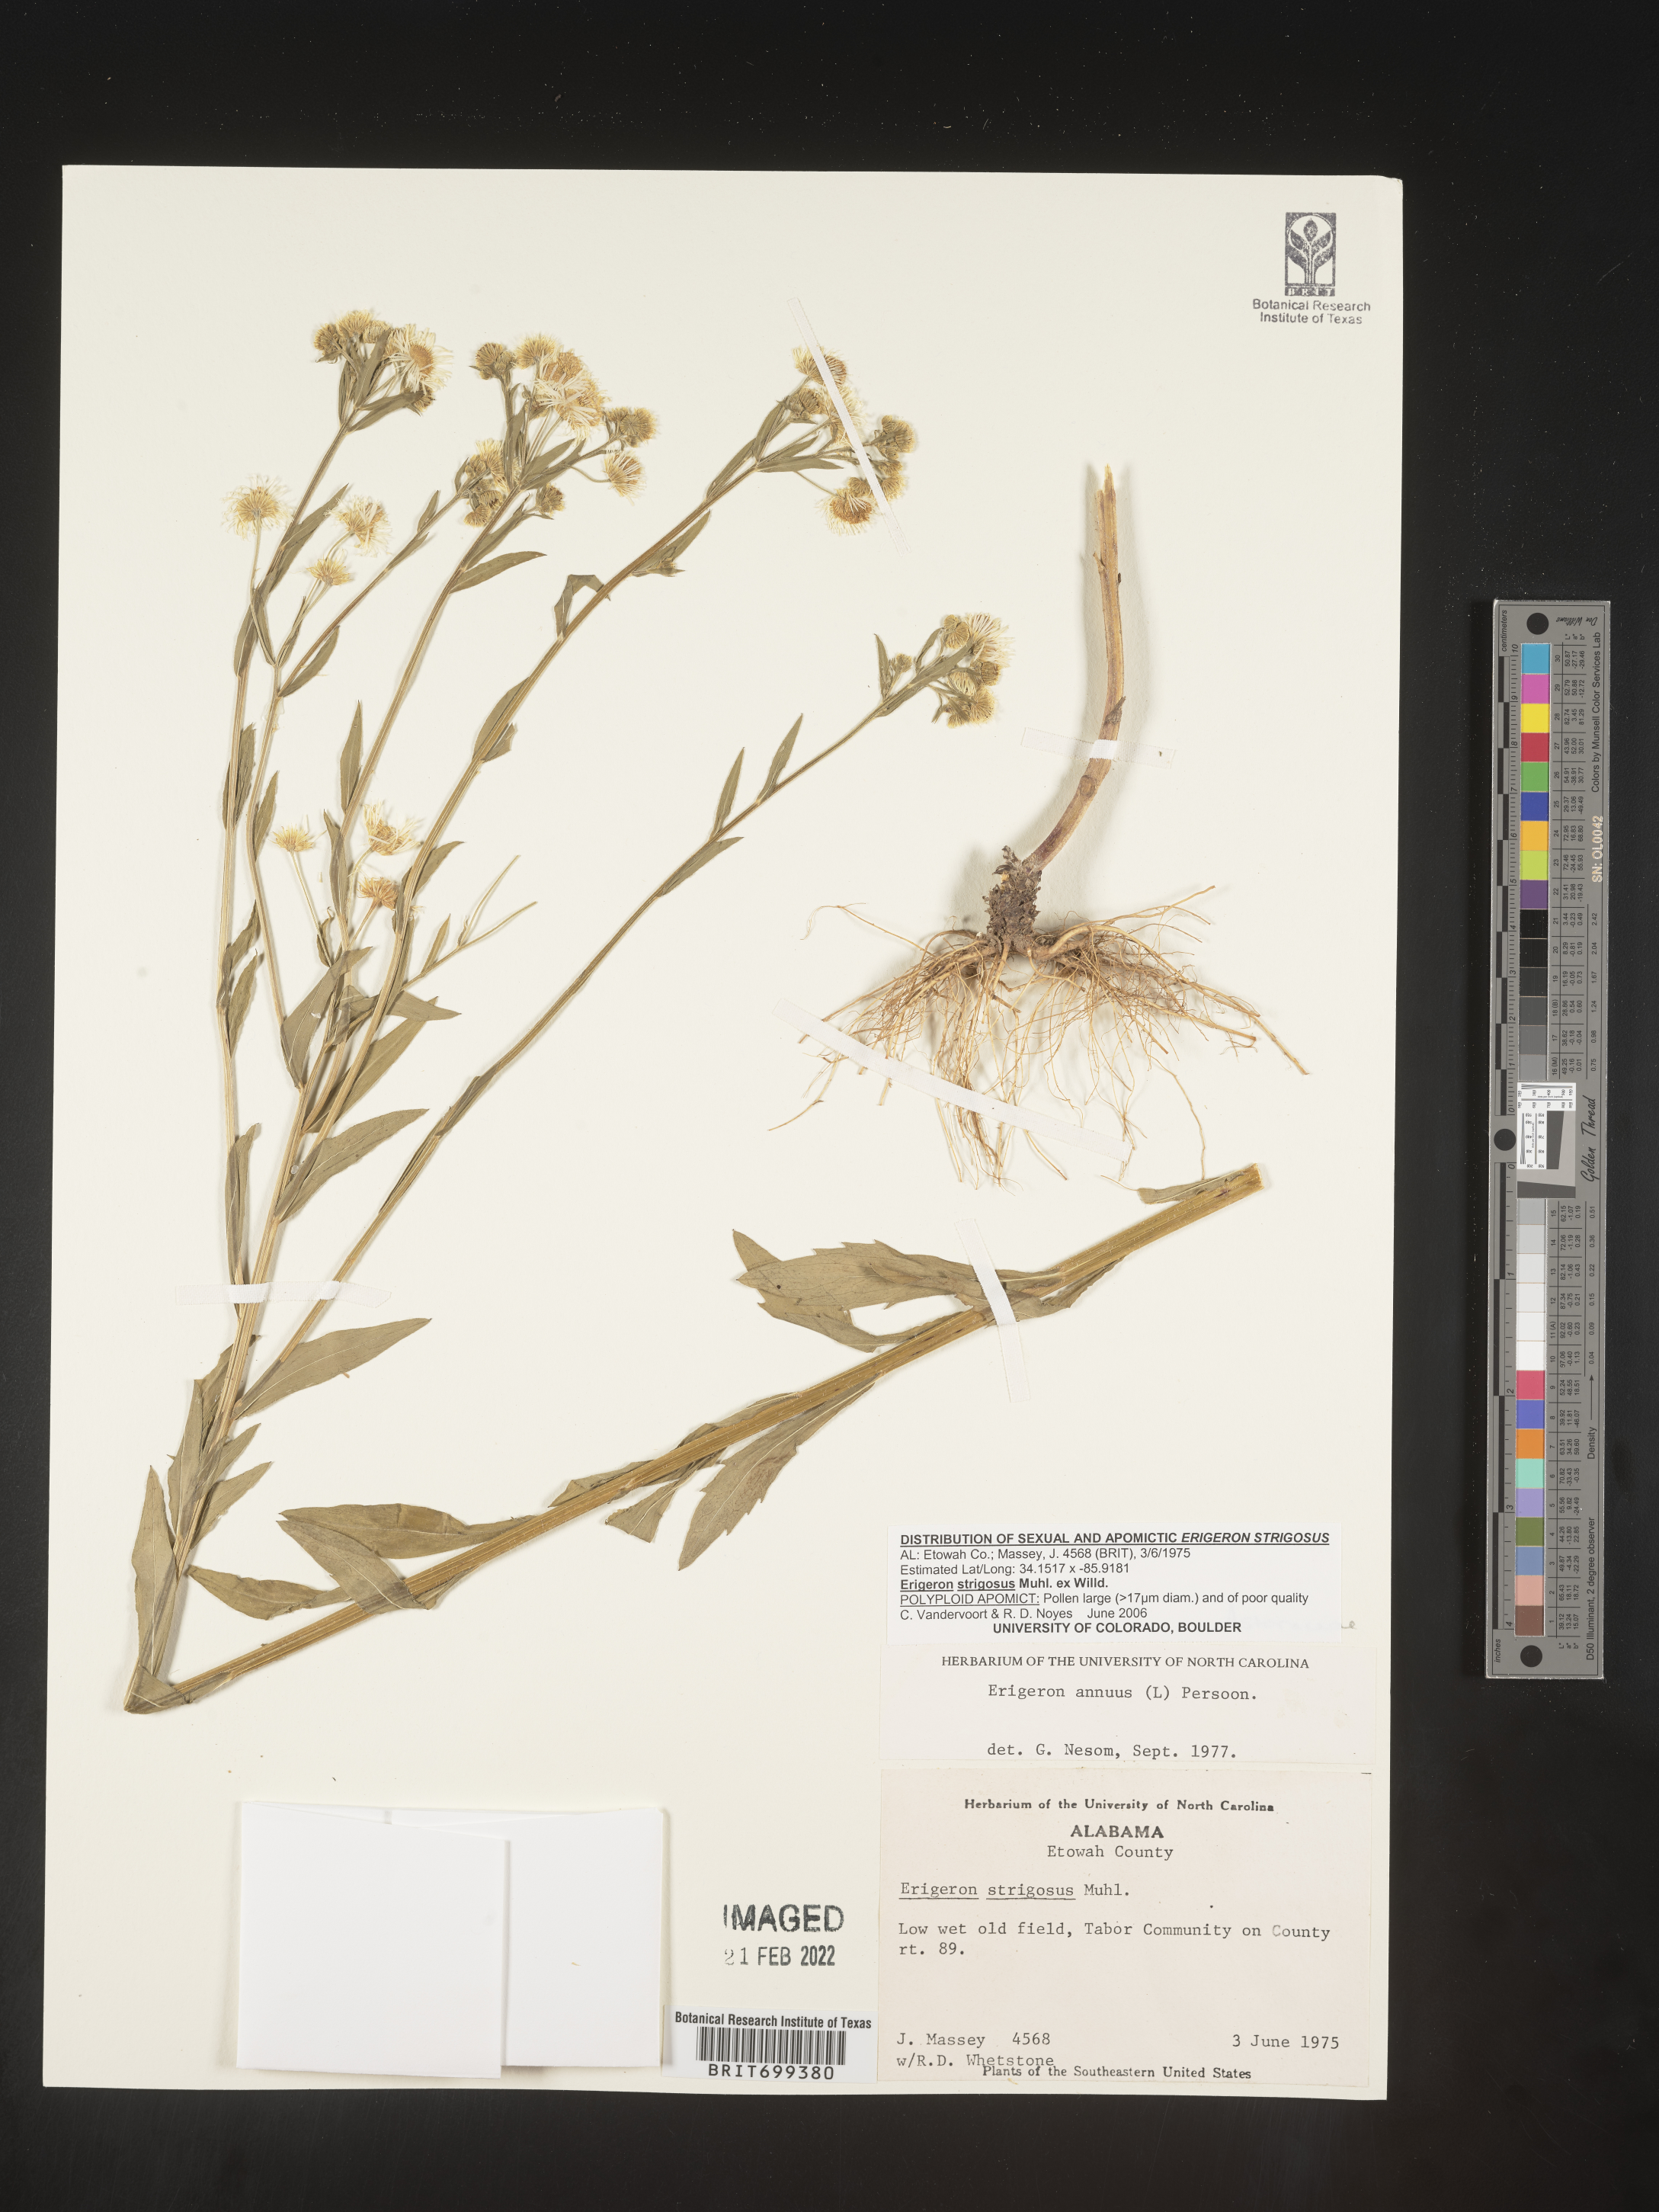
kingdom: Plantae
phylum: Tracheophyta
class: Magnoliopsida
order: Asterales
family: Asteraceae
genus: Erigeron
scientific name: Erigeron strigosus
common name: Common eastern fleabane
